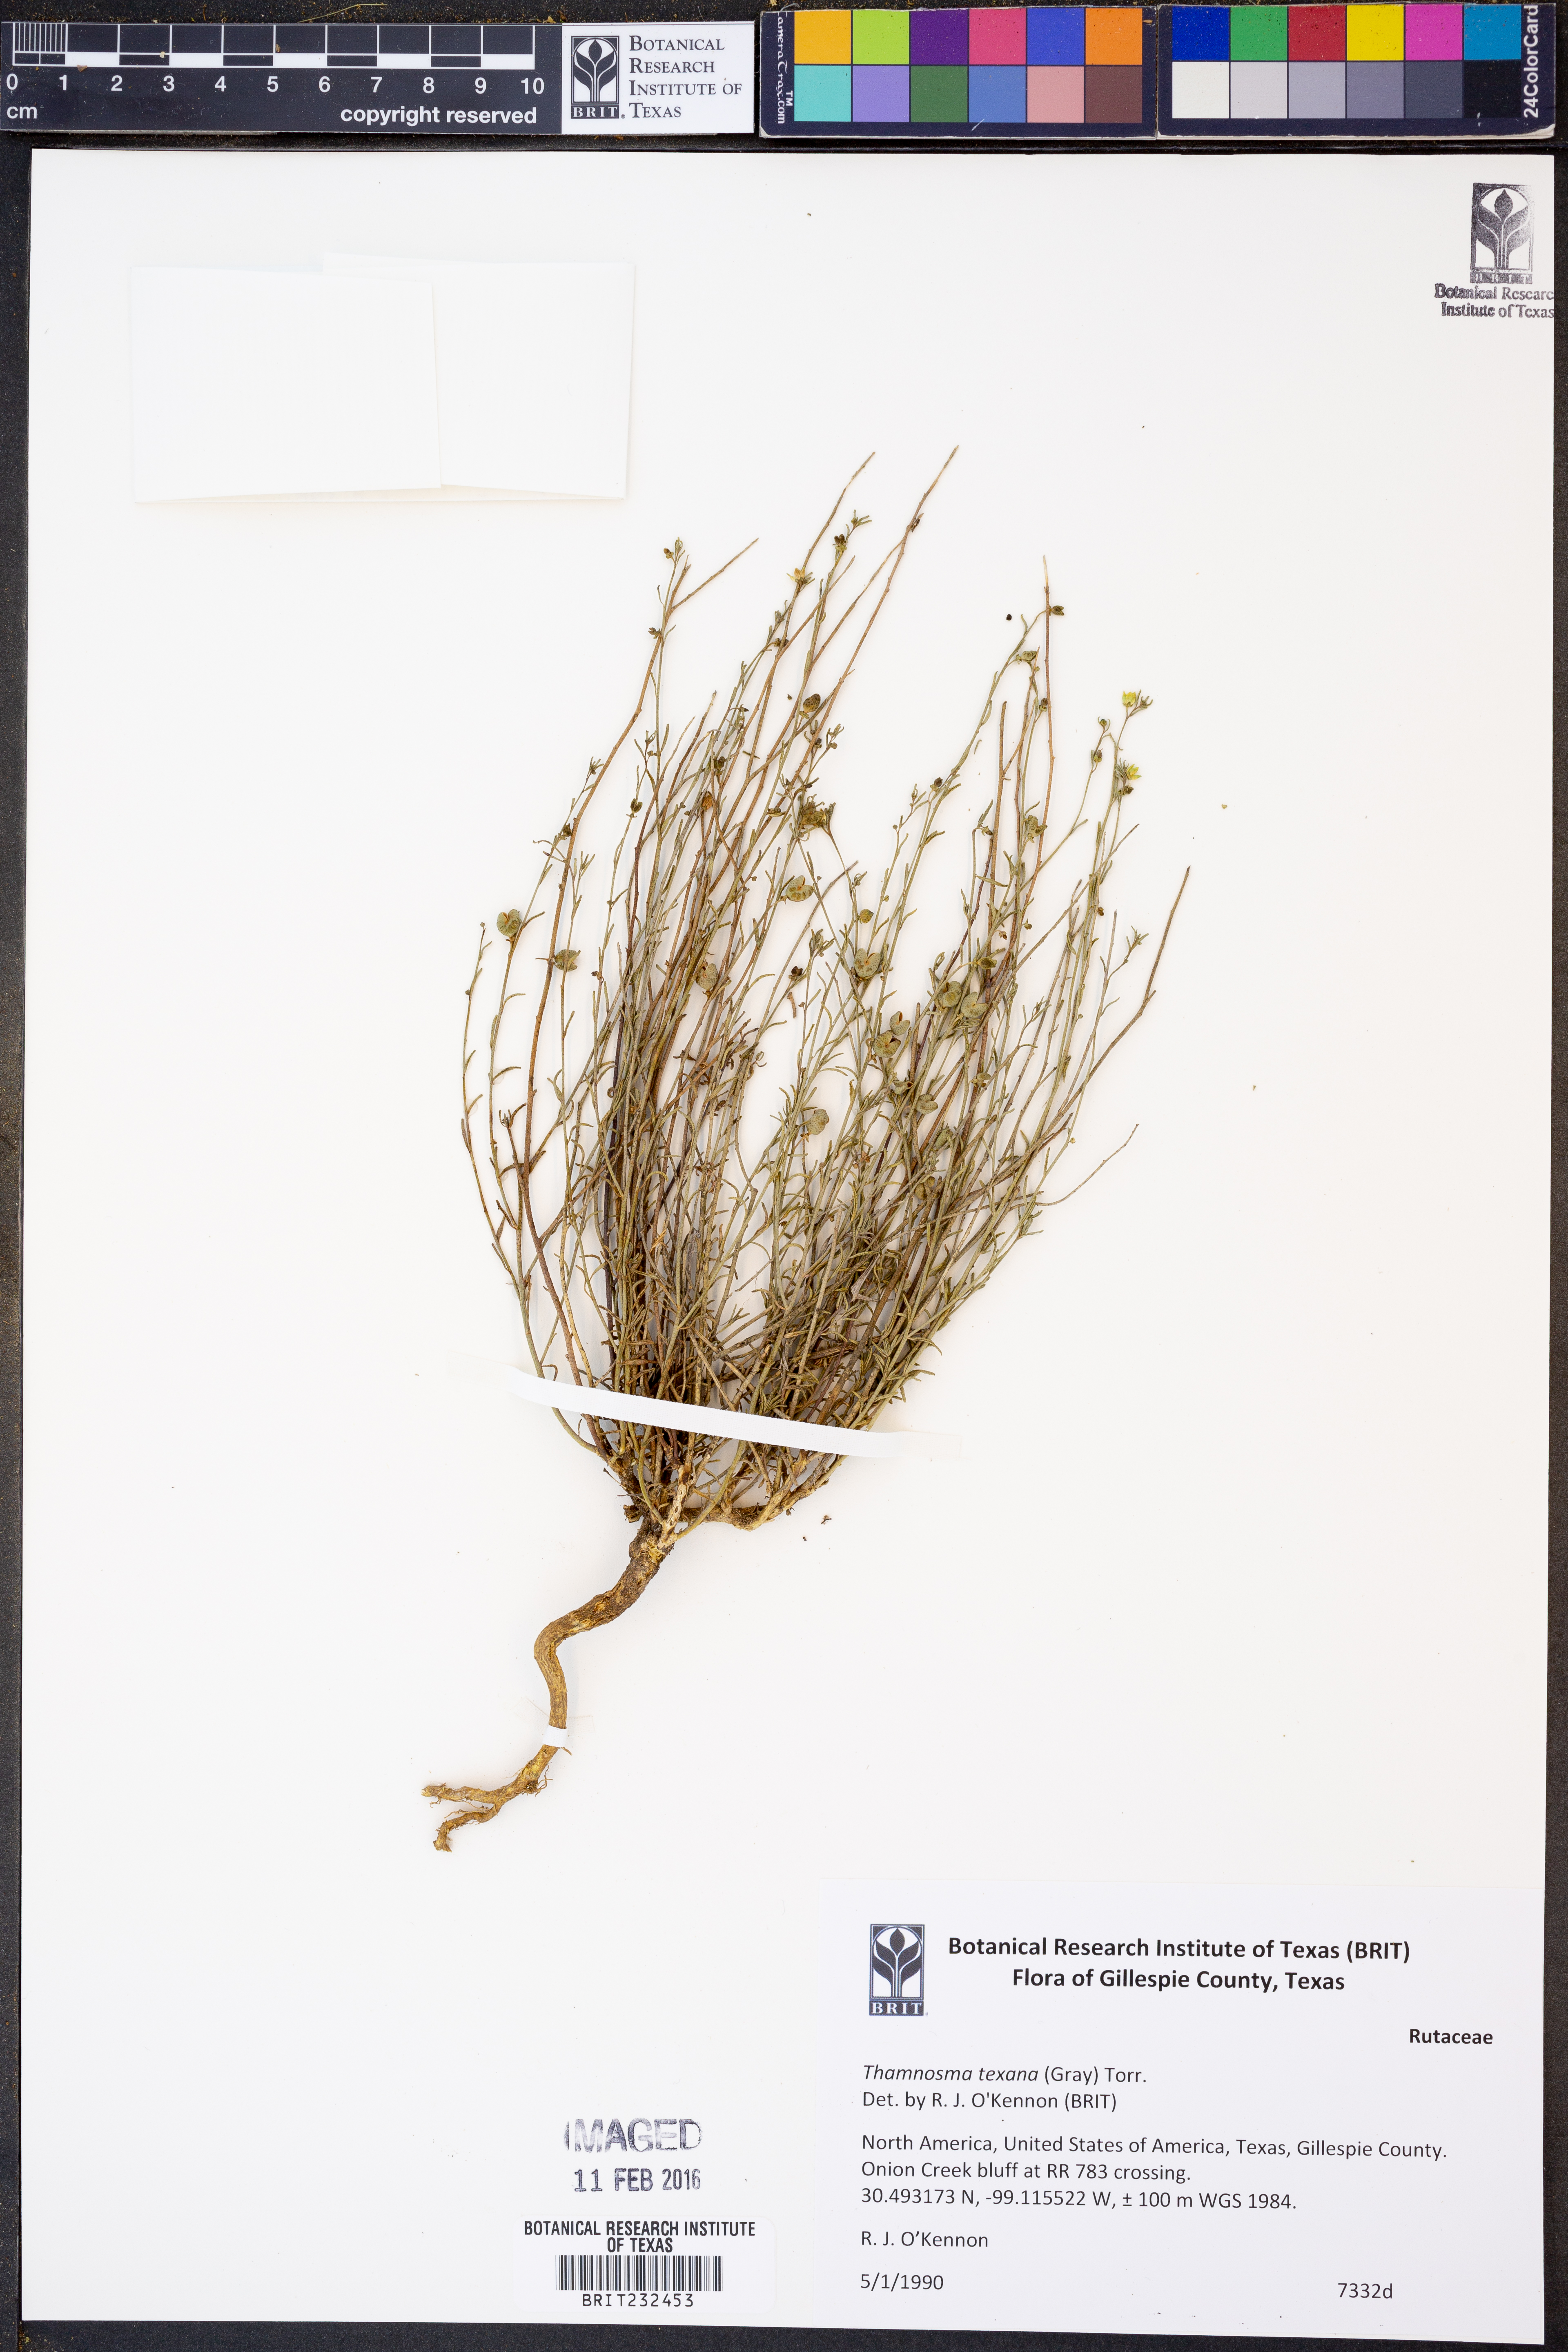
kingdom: Plantae
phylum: Tracheophyta
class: Magnoliopsida
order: Sapindales
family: Rutaceae
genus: Thamnosma
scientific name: Thamnosma texana
